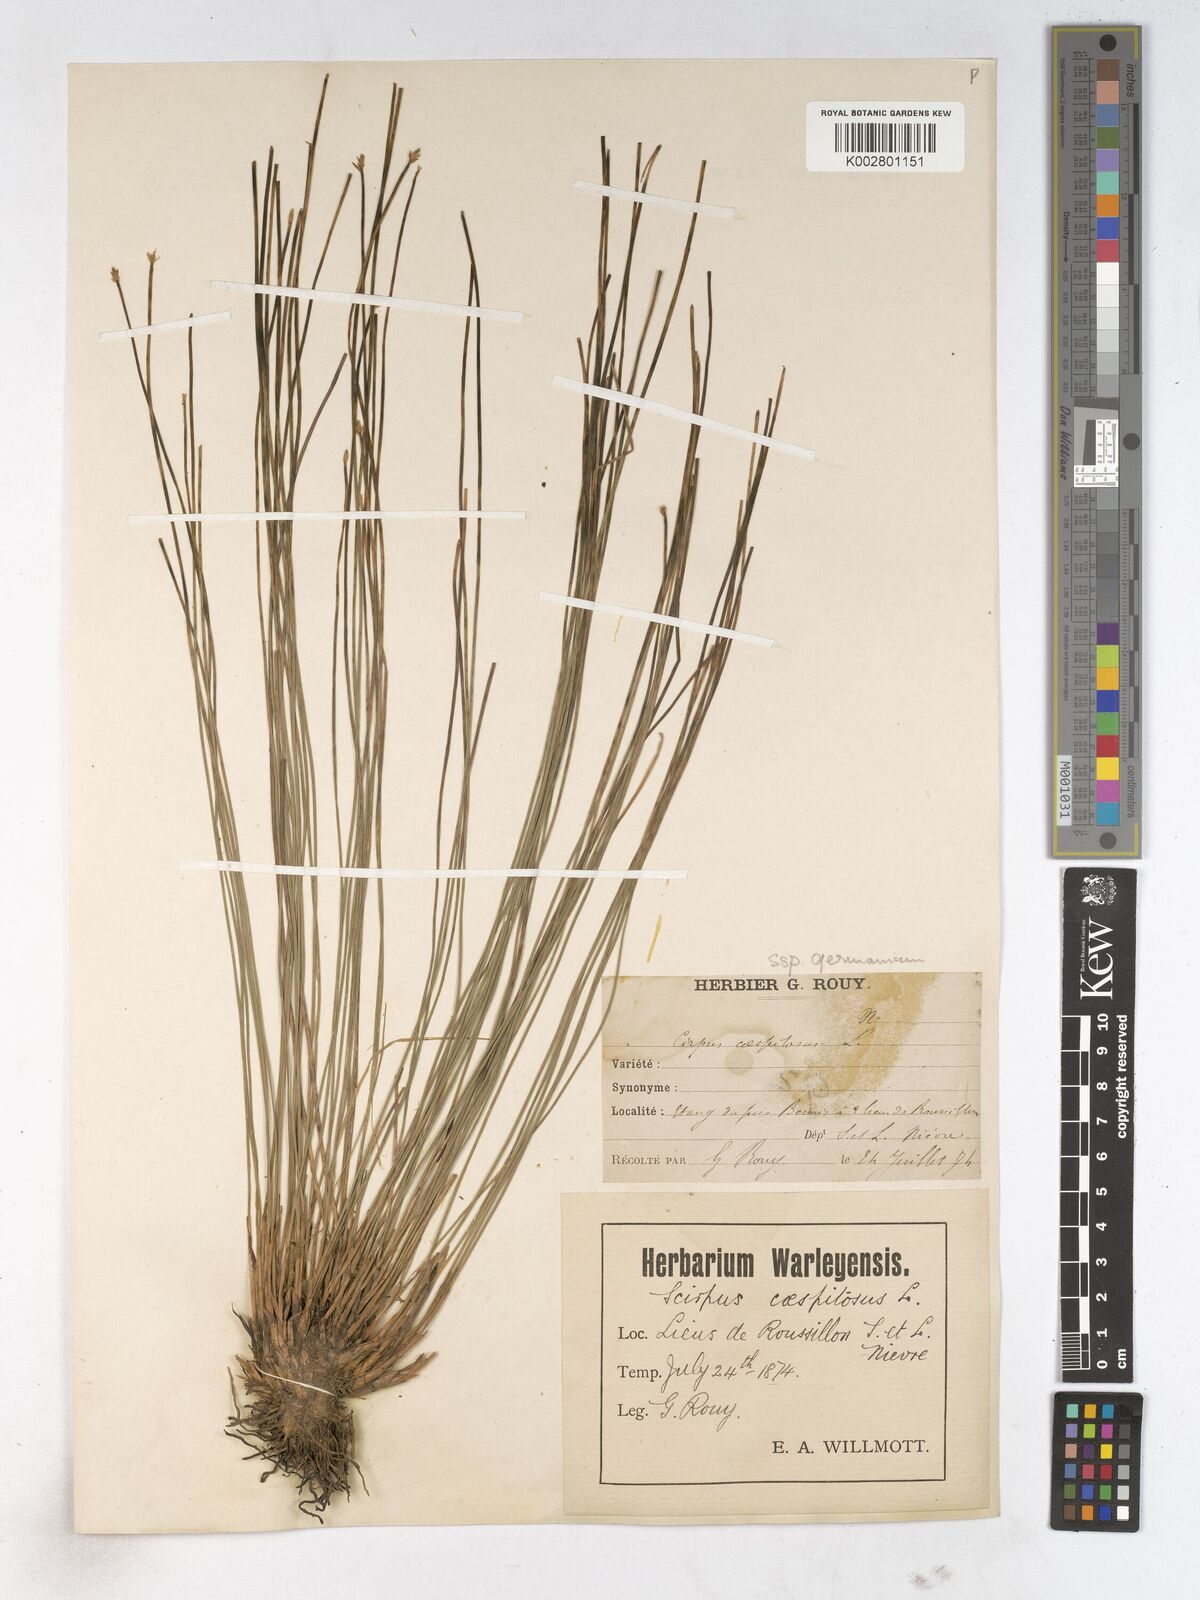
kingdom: Plantae
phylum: Tracheophyta
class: Liliopsida
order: Poales
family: Cyperaceae
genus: Trichophorum
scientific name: Trichophorum cespitosum
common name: Cespitose bulrush
